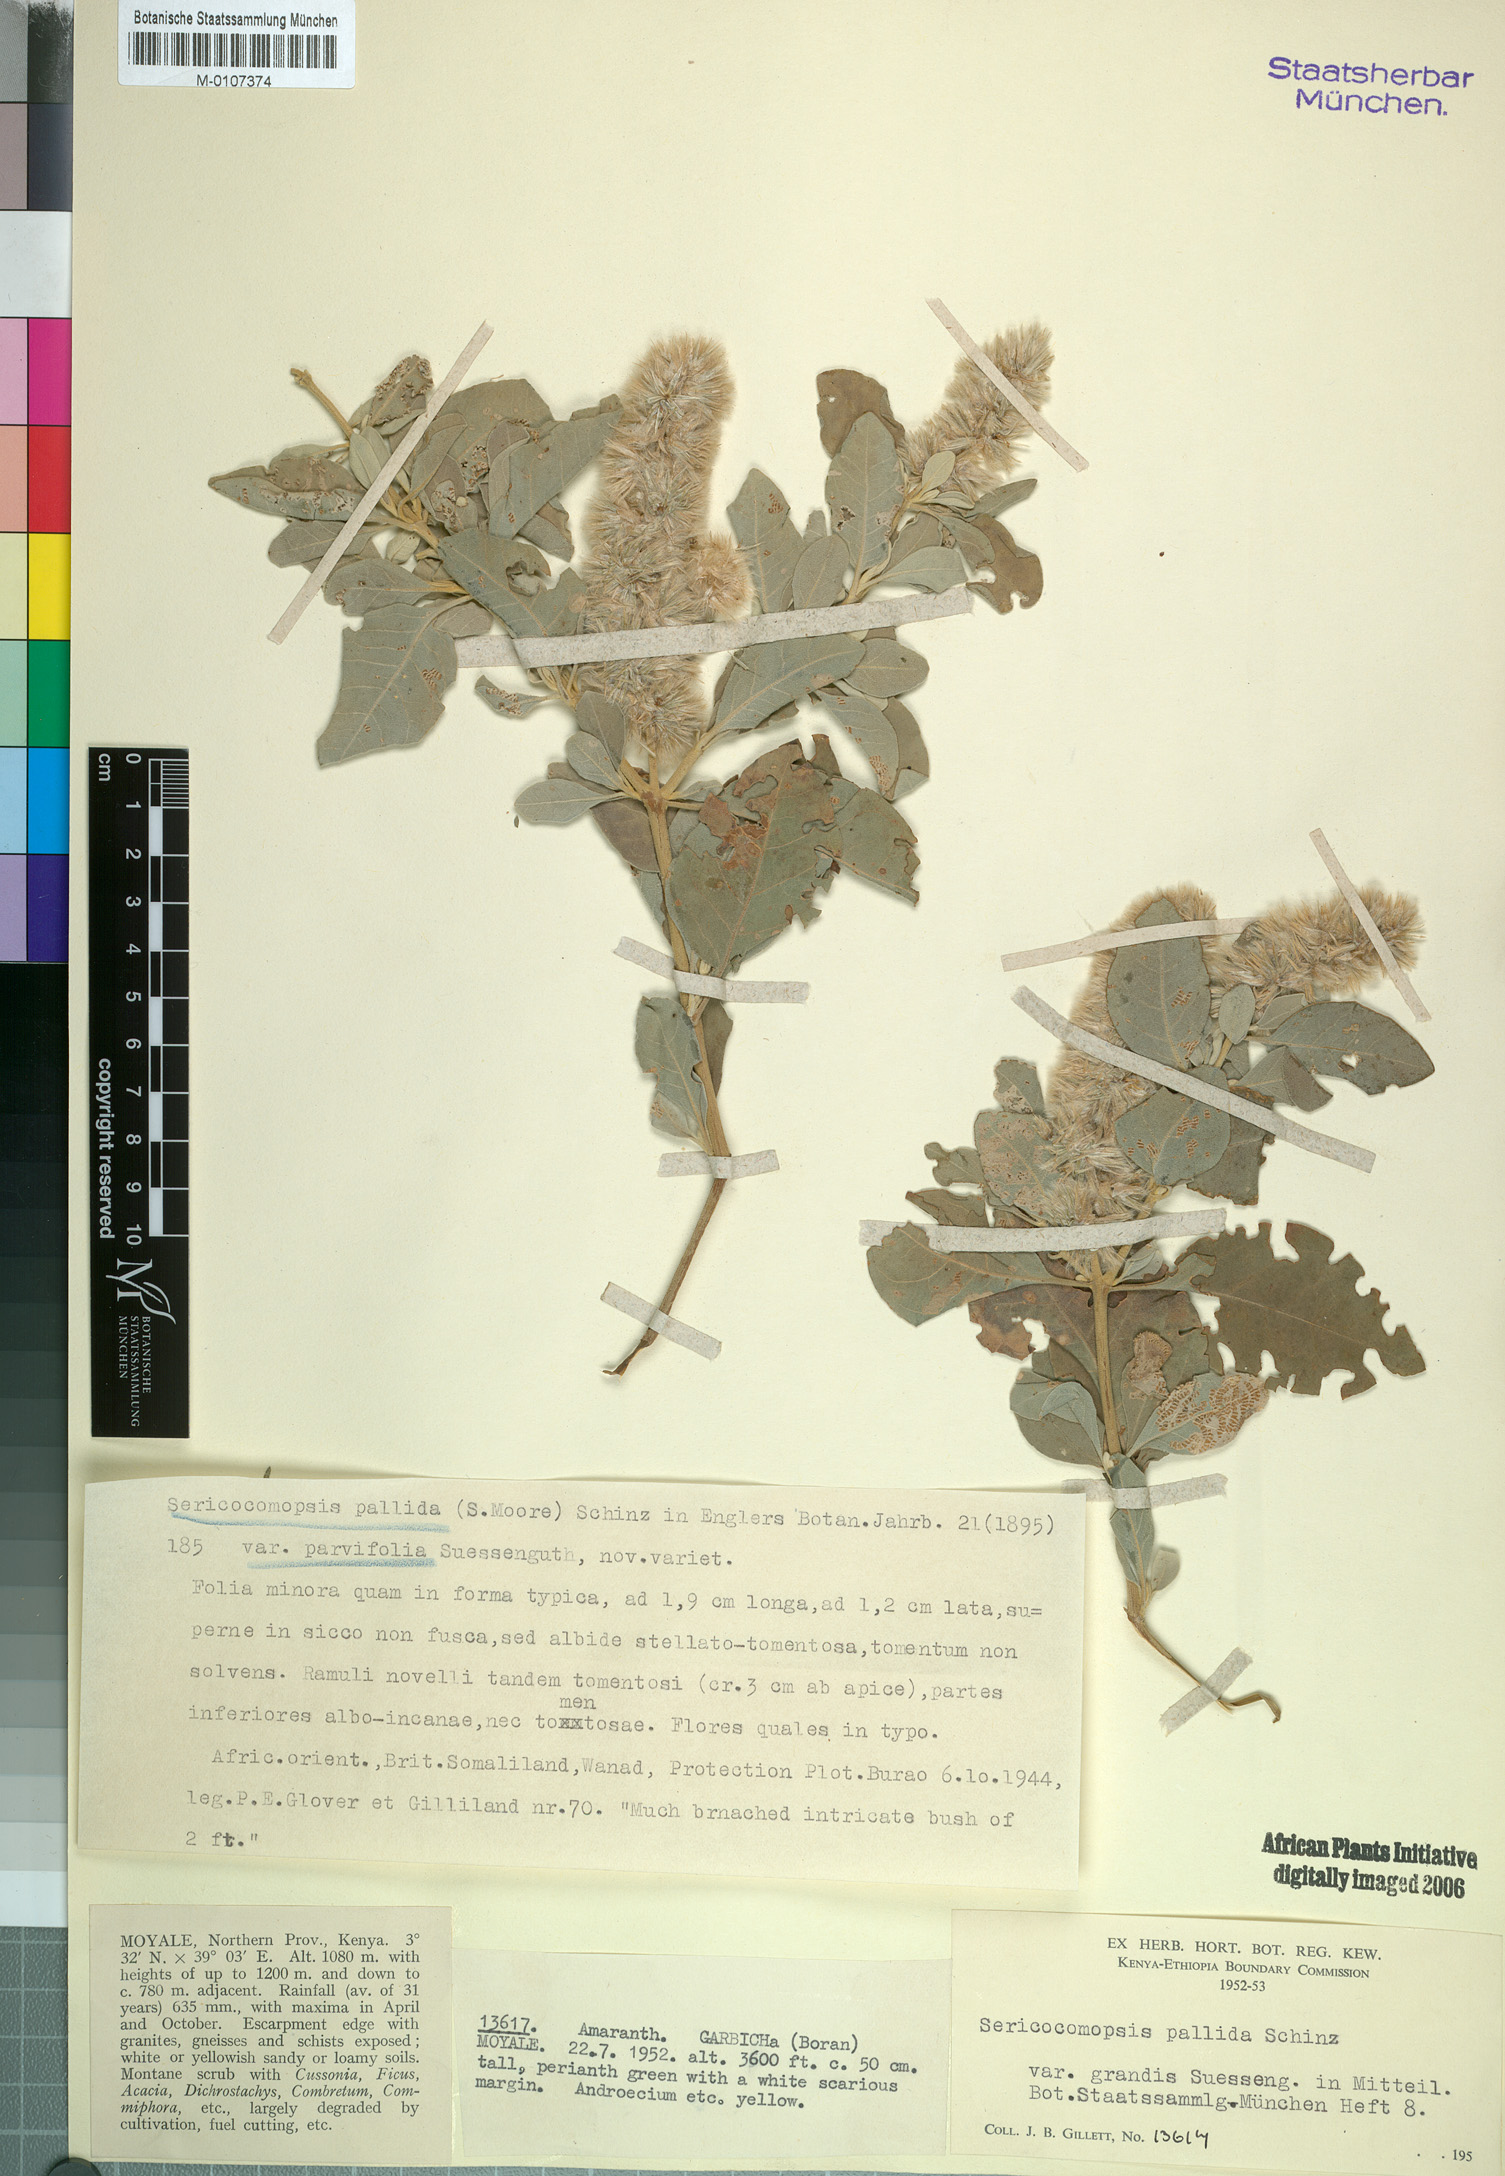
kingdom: Plantae
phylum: Tracheophyta
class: Magnoliopsida
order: Caryophyllales
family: Amaranthaceae
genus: Sericocomopsis
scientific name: Sericocomopsis pallida
